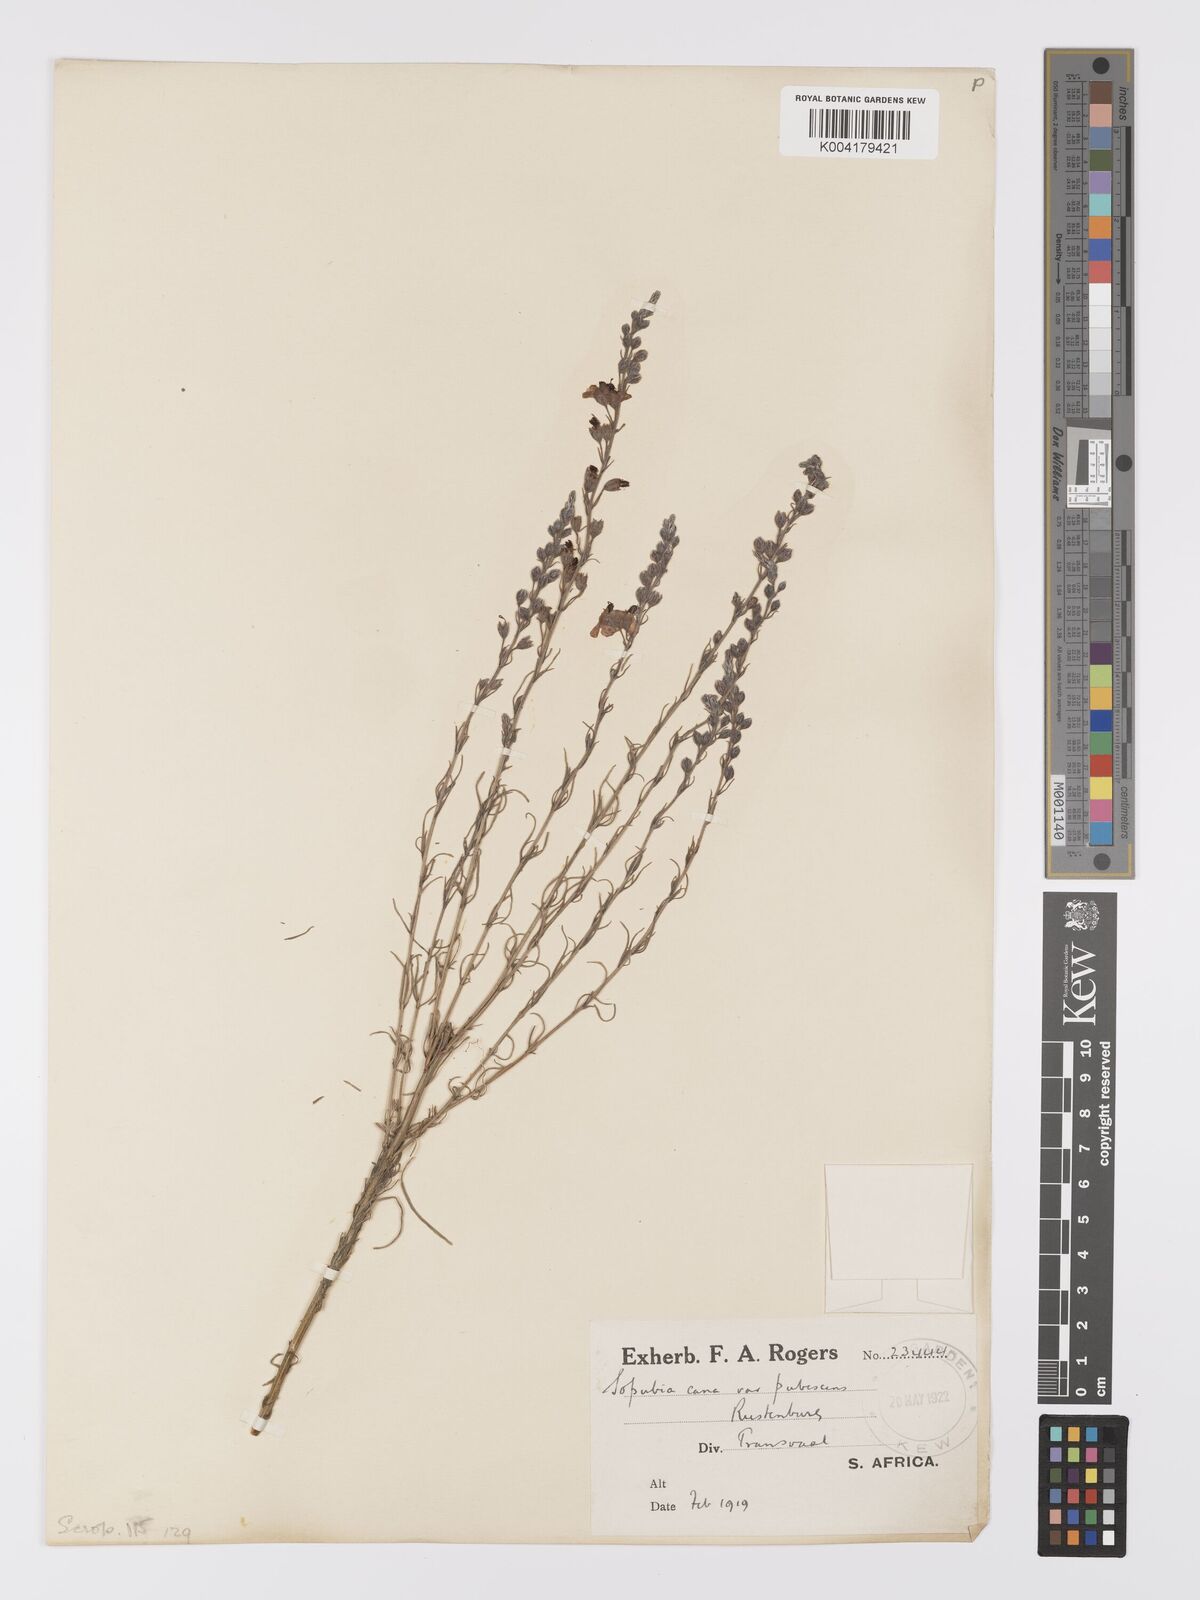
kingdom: Plantae
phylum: Tracheophyta
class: Magnoliopsida
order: Lamiales
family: Orobanchaceae
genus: Sopubia
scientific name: Sopubia simplex
